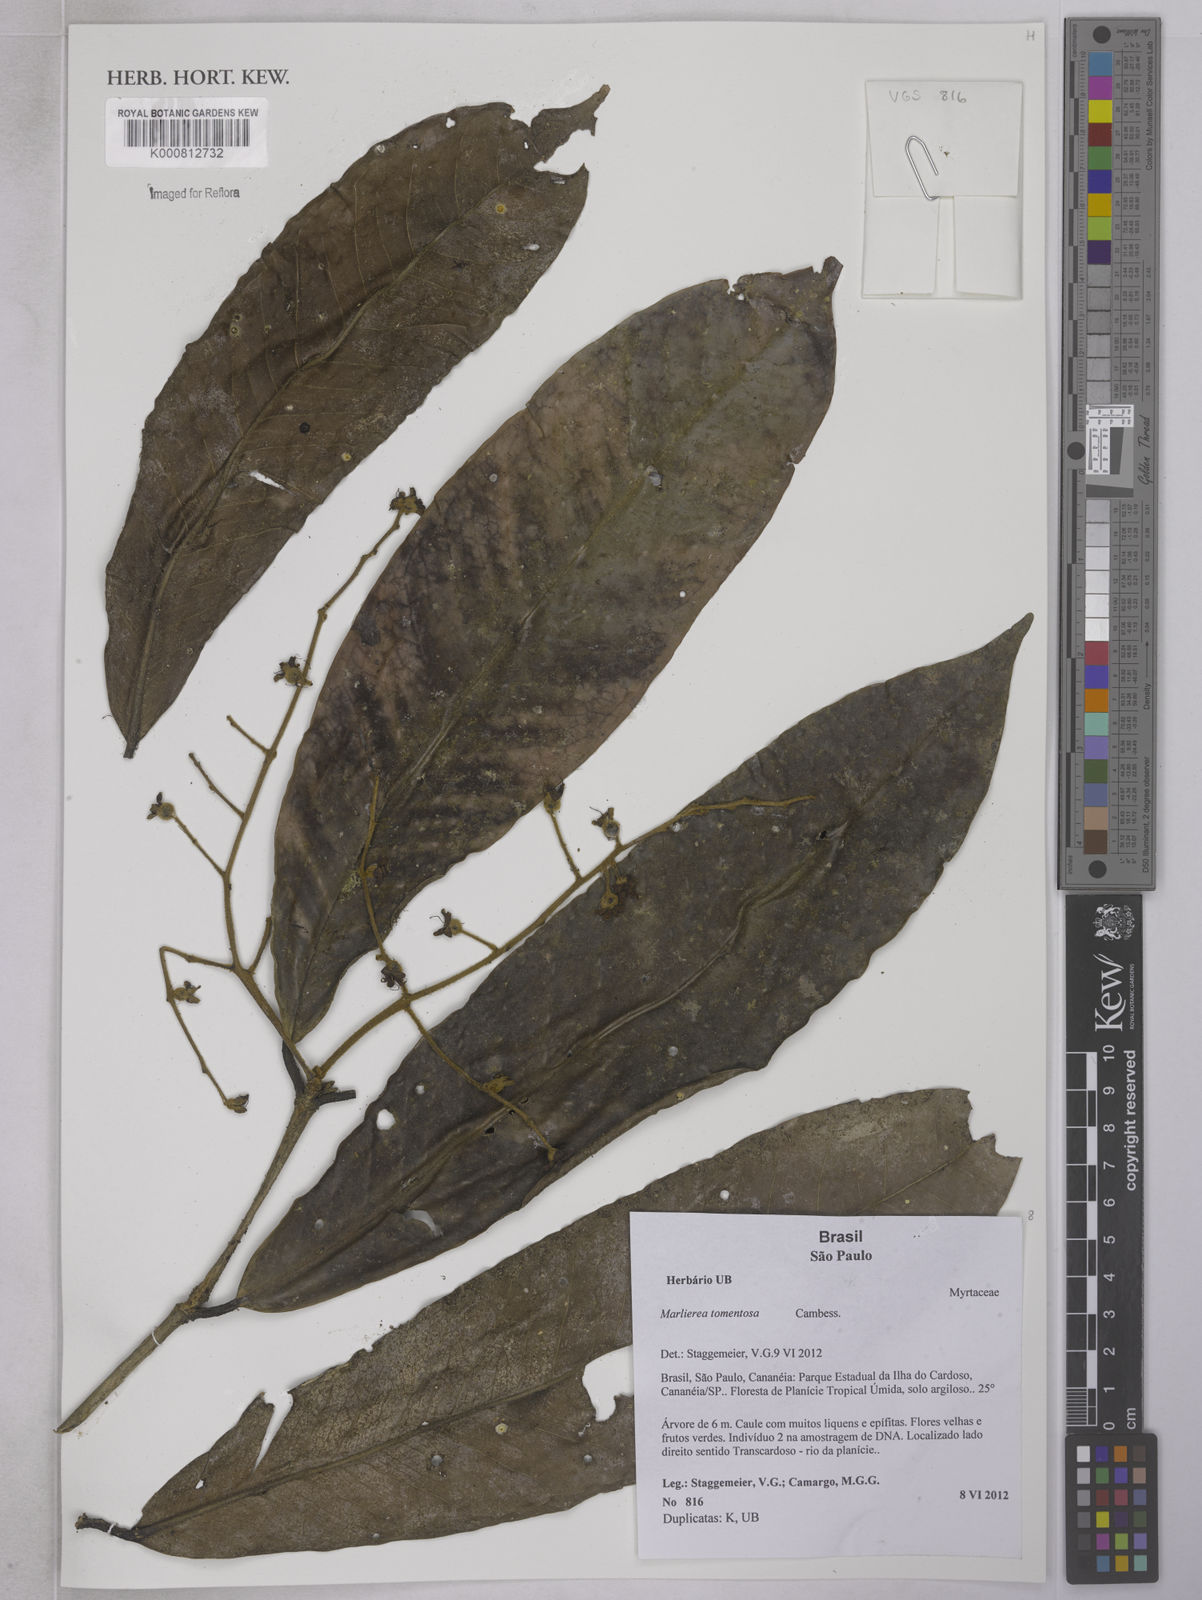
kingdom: Plantae
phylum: Tracheophyta
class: Magnoliopsida
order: Myrtales
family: Myrtaceae
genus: Myrcia
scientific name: Myrcia neotomentosa
